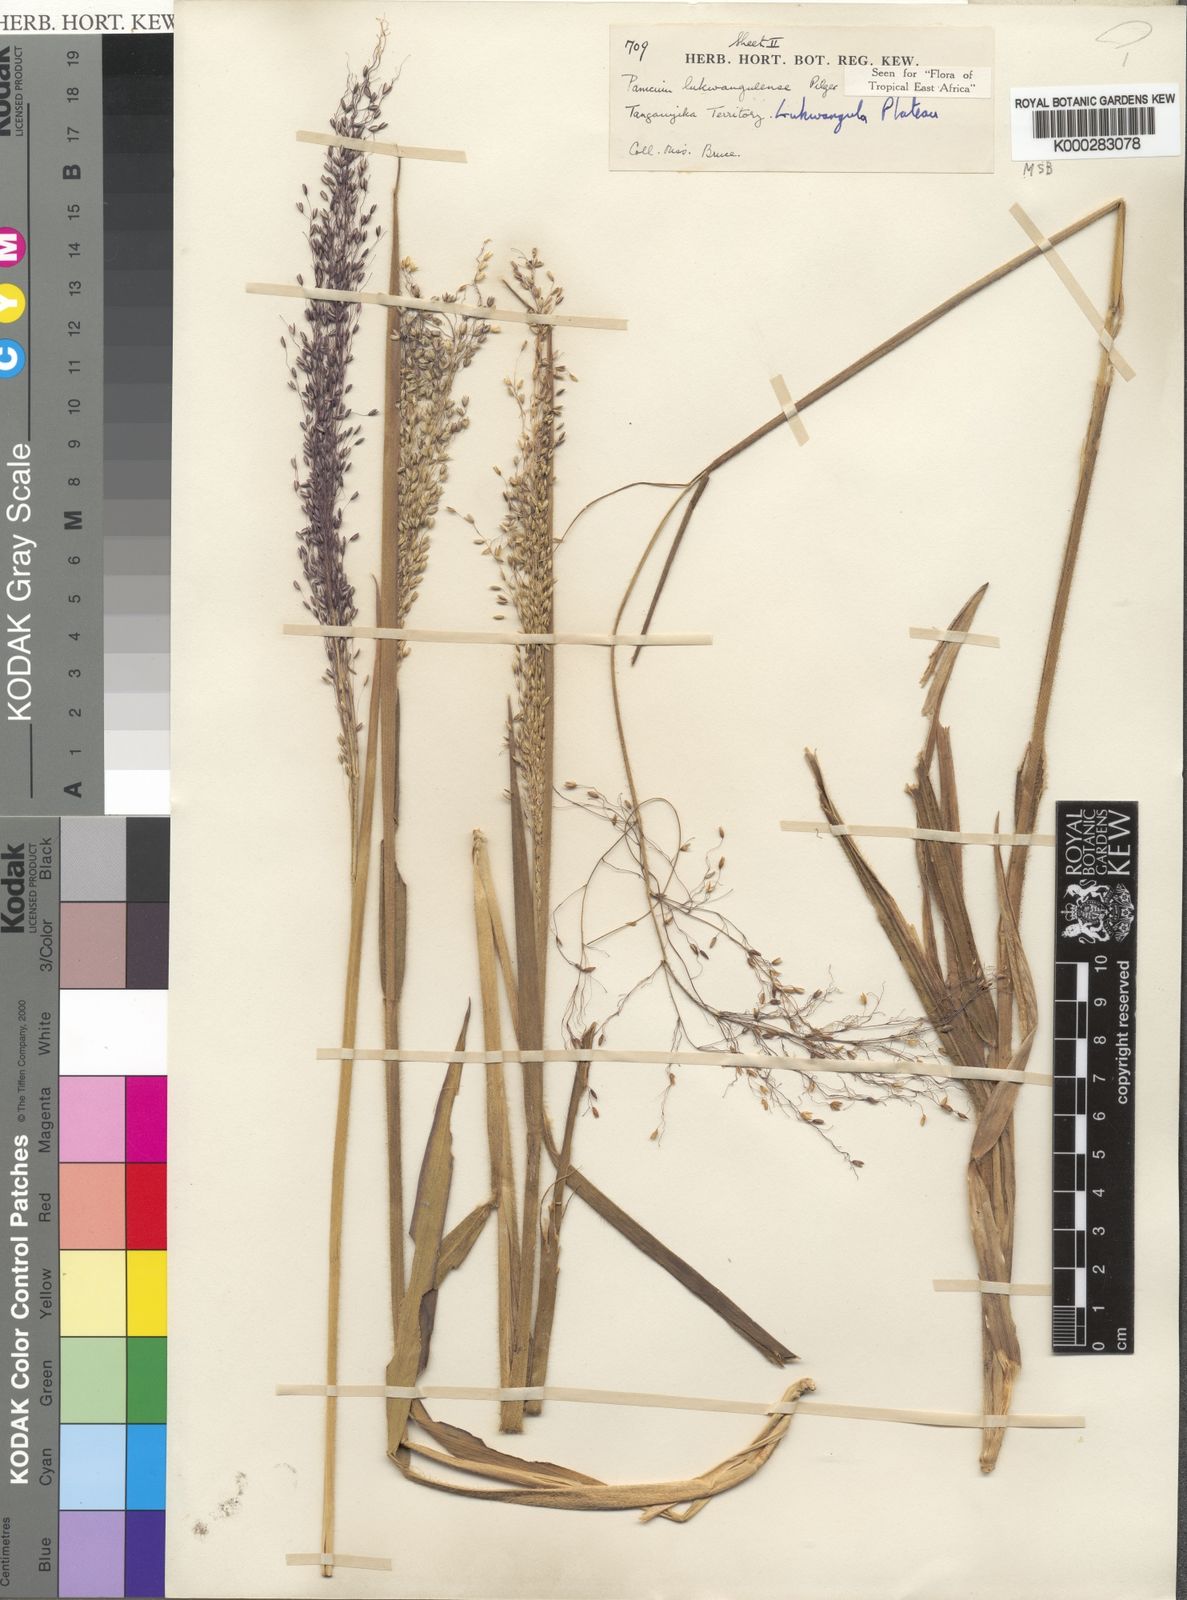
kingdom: Plantae
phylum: Tracheophyta
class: Liliopsida
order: Poales
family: Poaceae
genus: Adenochloa
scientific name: Adenochloa lukwangulense
